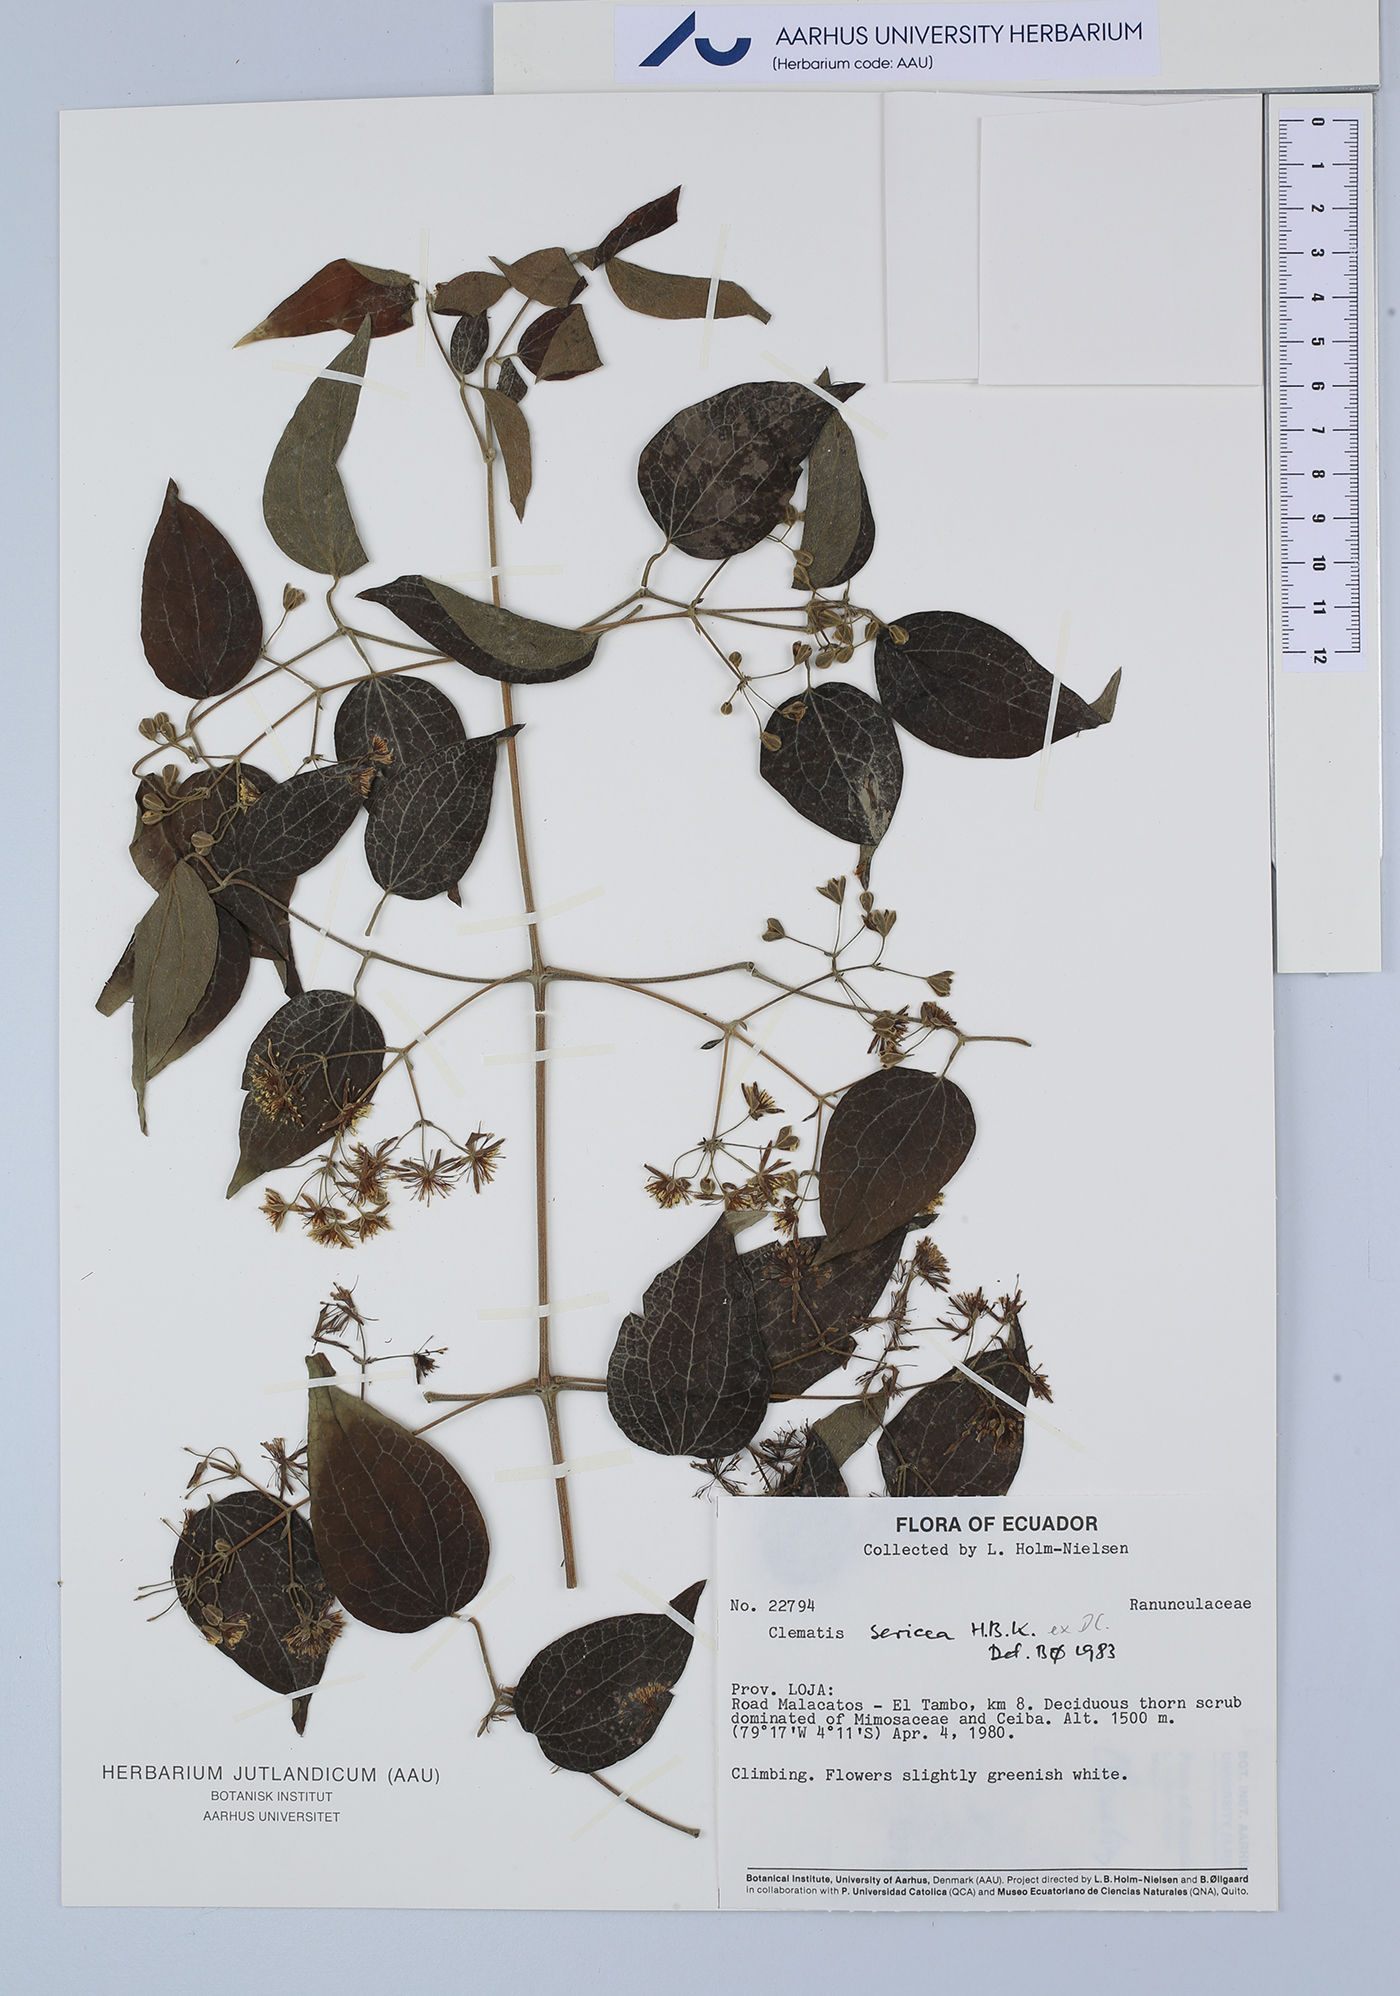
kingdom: Plantae
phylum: Tracheophyta
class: Magnoliopsida
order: Ranunculales
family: Ranunculaceae
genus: Clematis
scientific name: Clematis haenkeana
